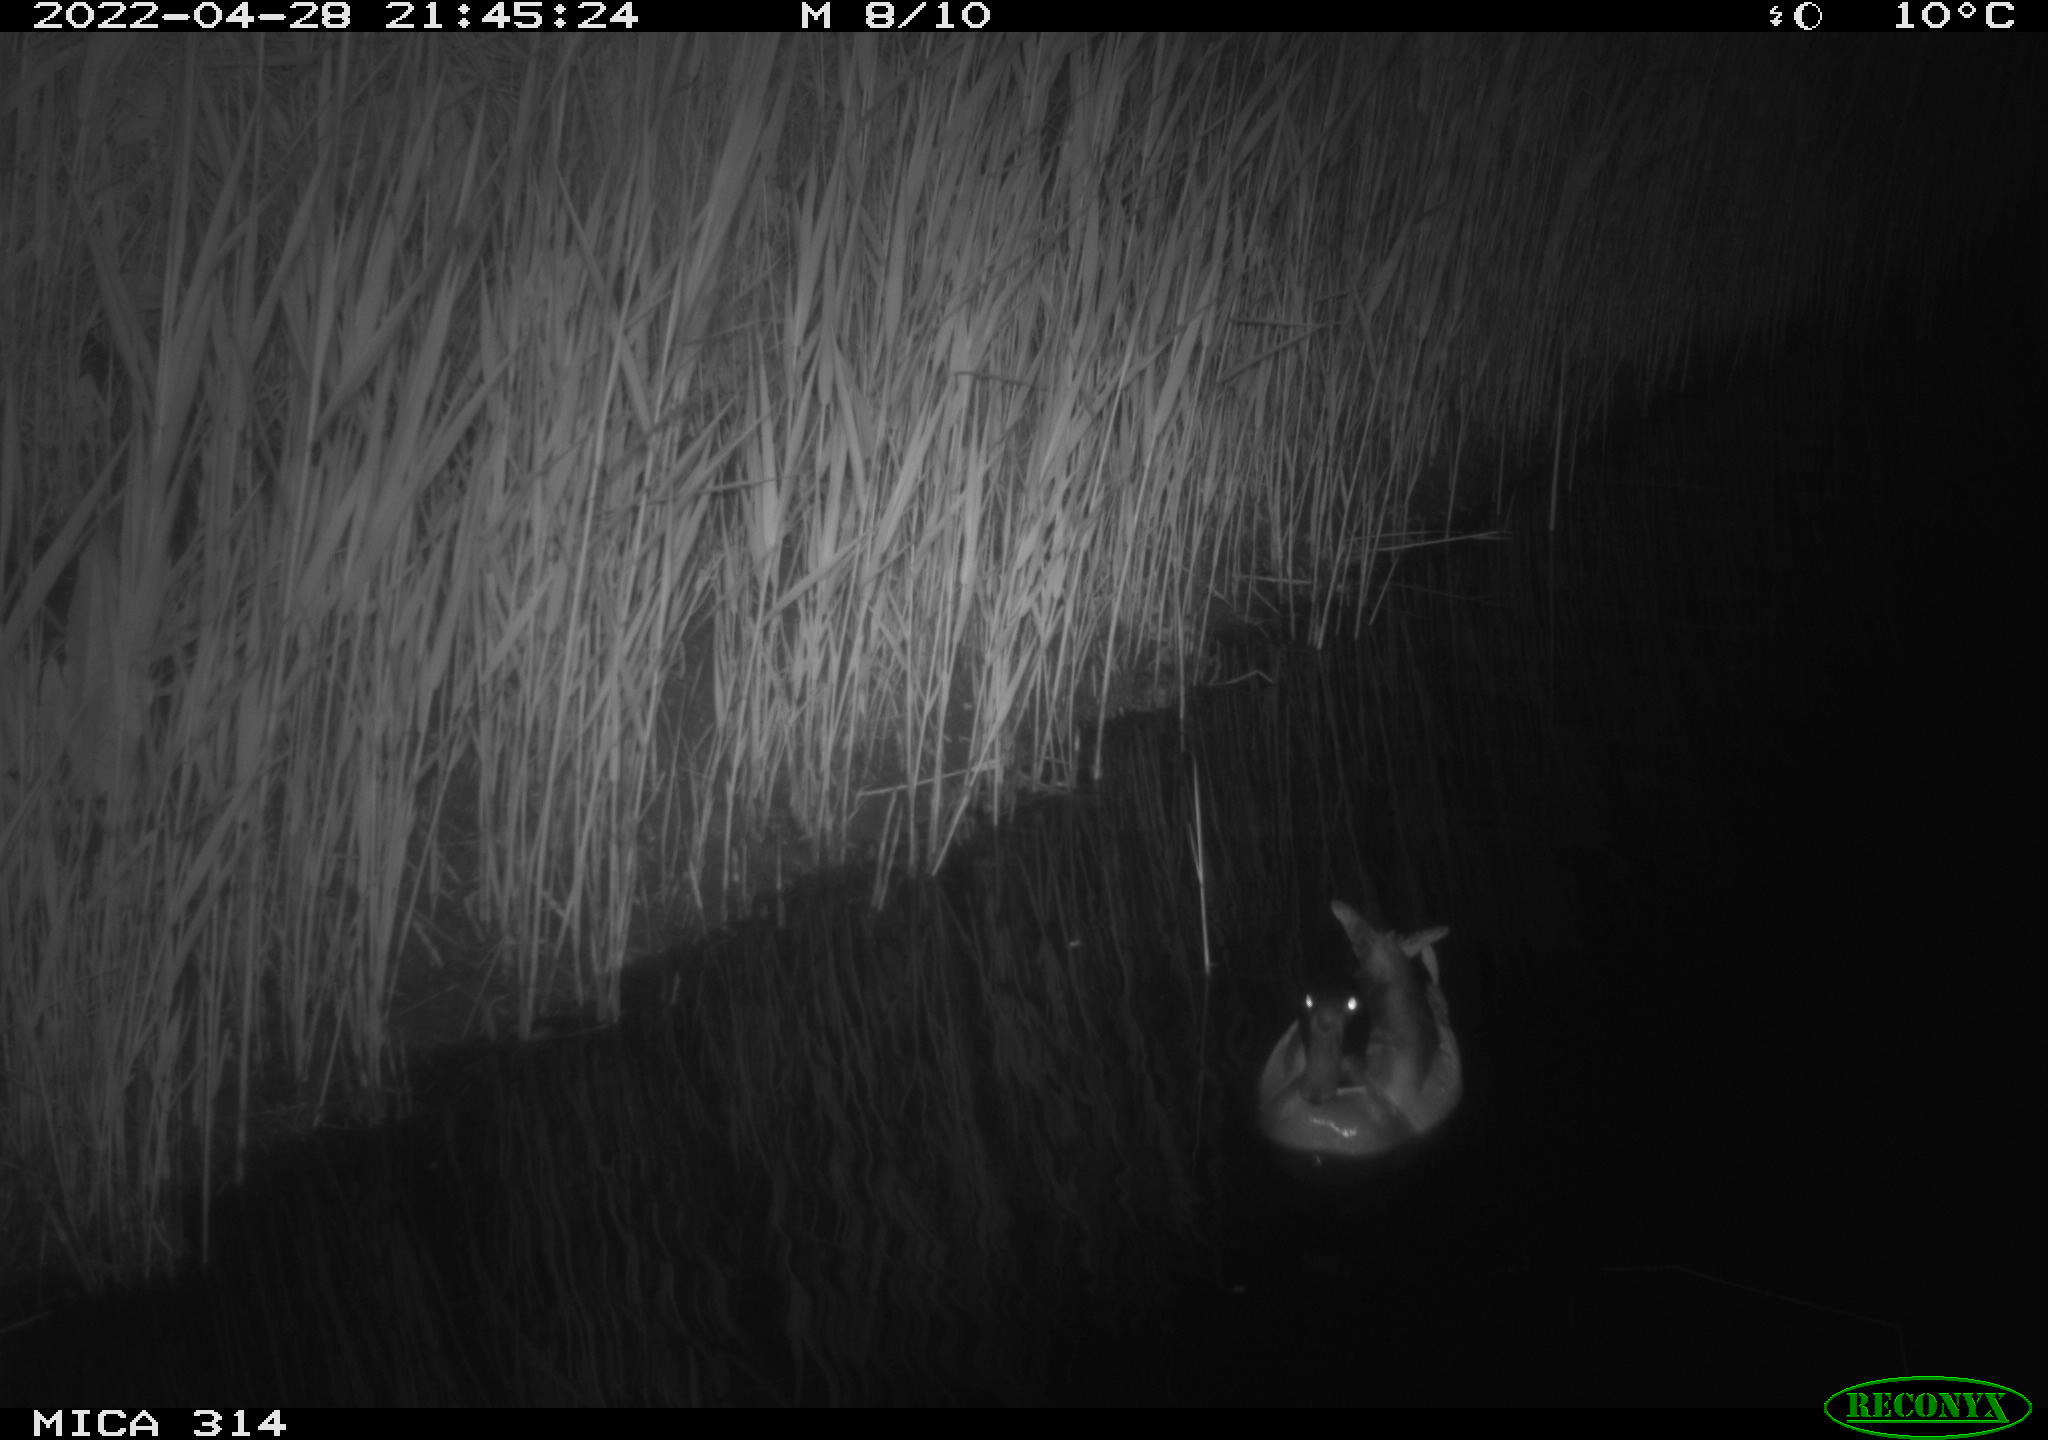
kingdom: Animalia
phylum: Chordata
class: Aves
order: Anseriformes
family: Anatidae
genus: Anas
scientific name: Anas platyrhynchos
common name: Mallard
